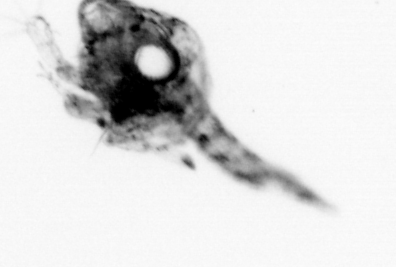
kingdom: Animalia
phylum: Arthropoda
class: Copepoda
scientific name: Copepoda
